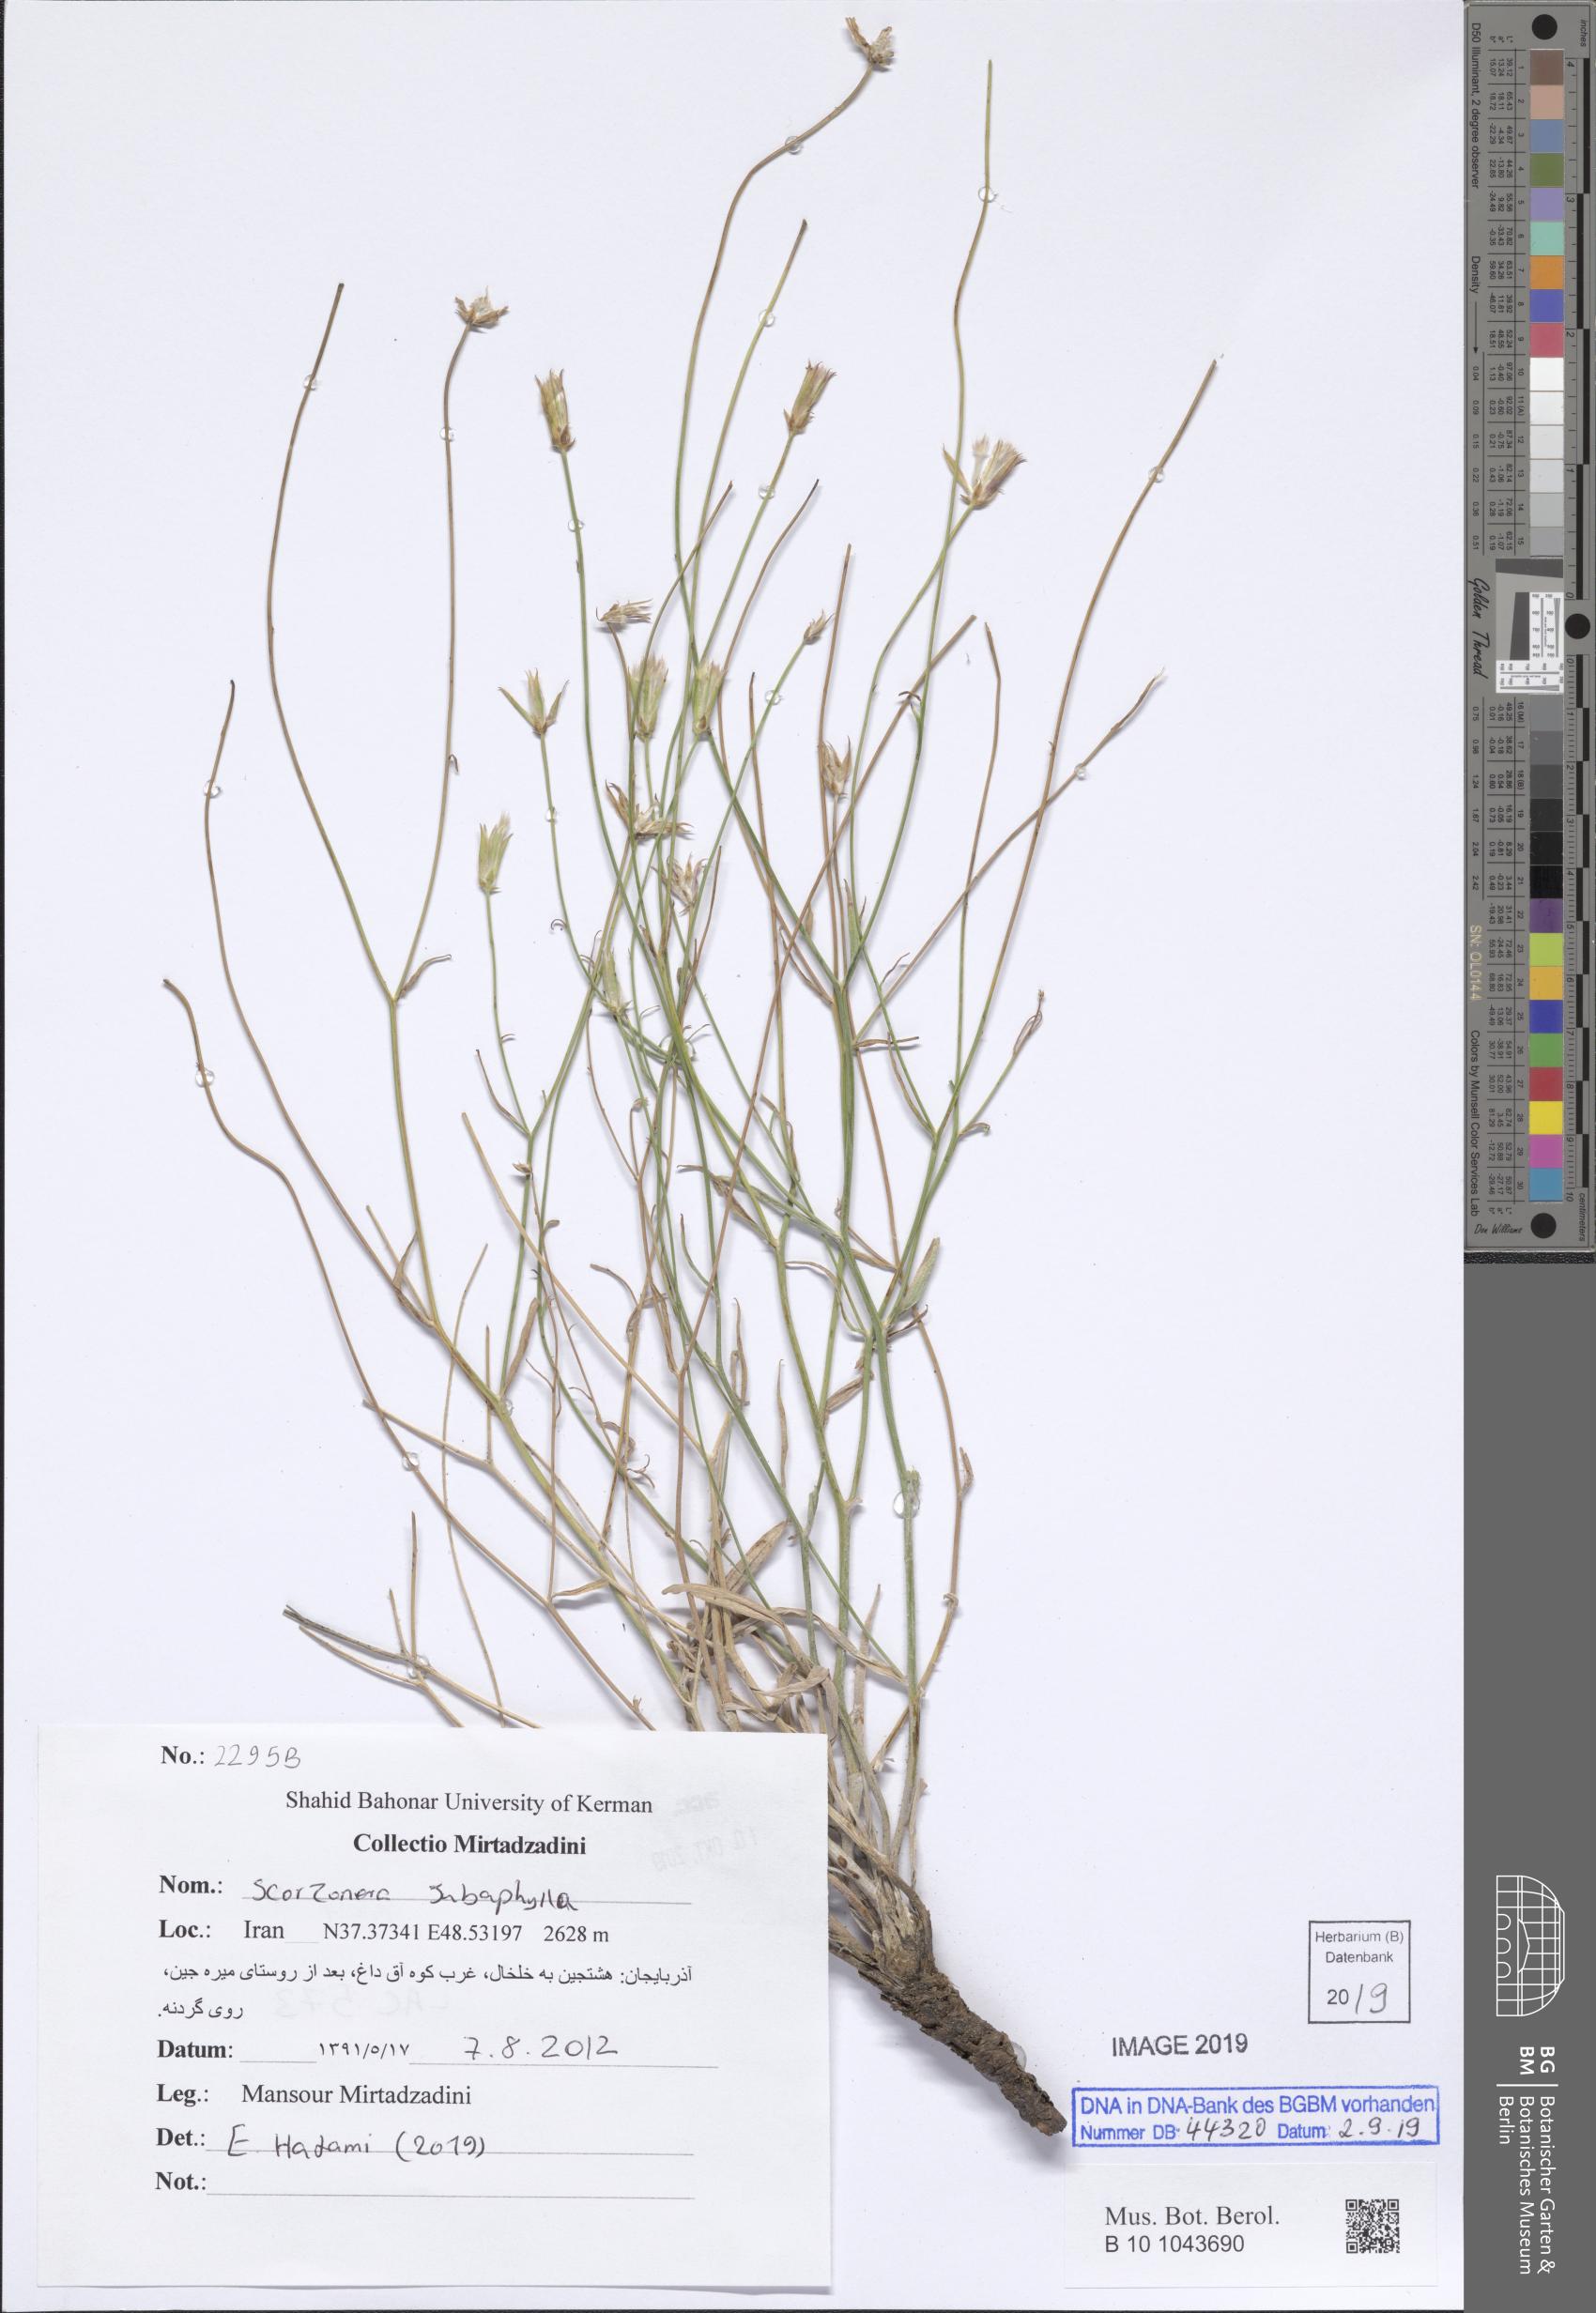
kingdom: Plantae
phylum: Tracheophyta
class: Magnoliopsida
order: Asterales
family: Asteraceae
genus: Scorzonera
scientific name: Scorzonera subaphylla
